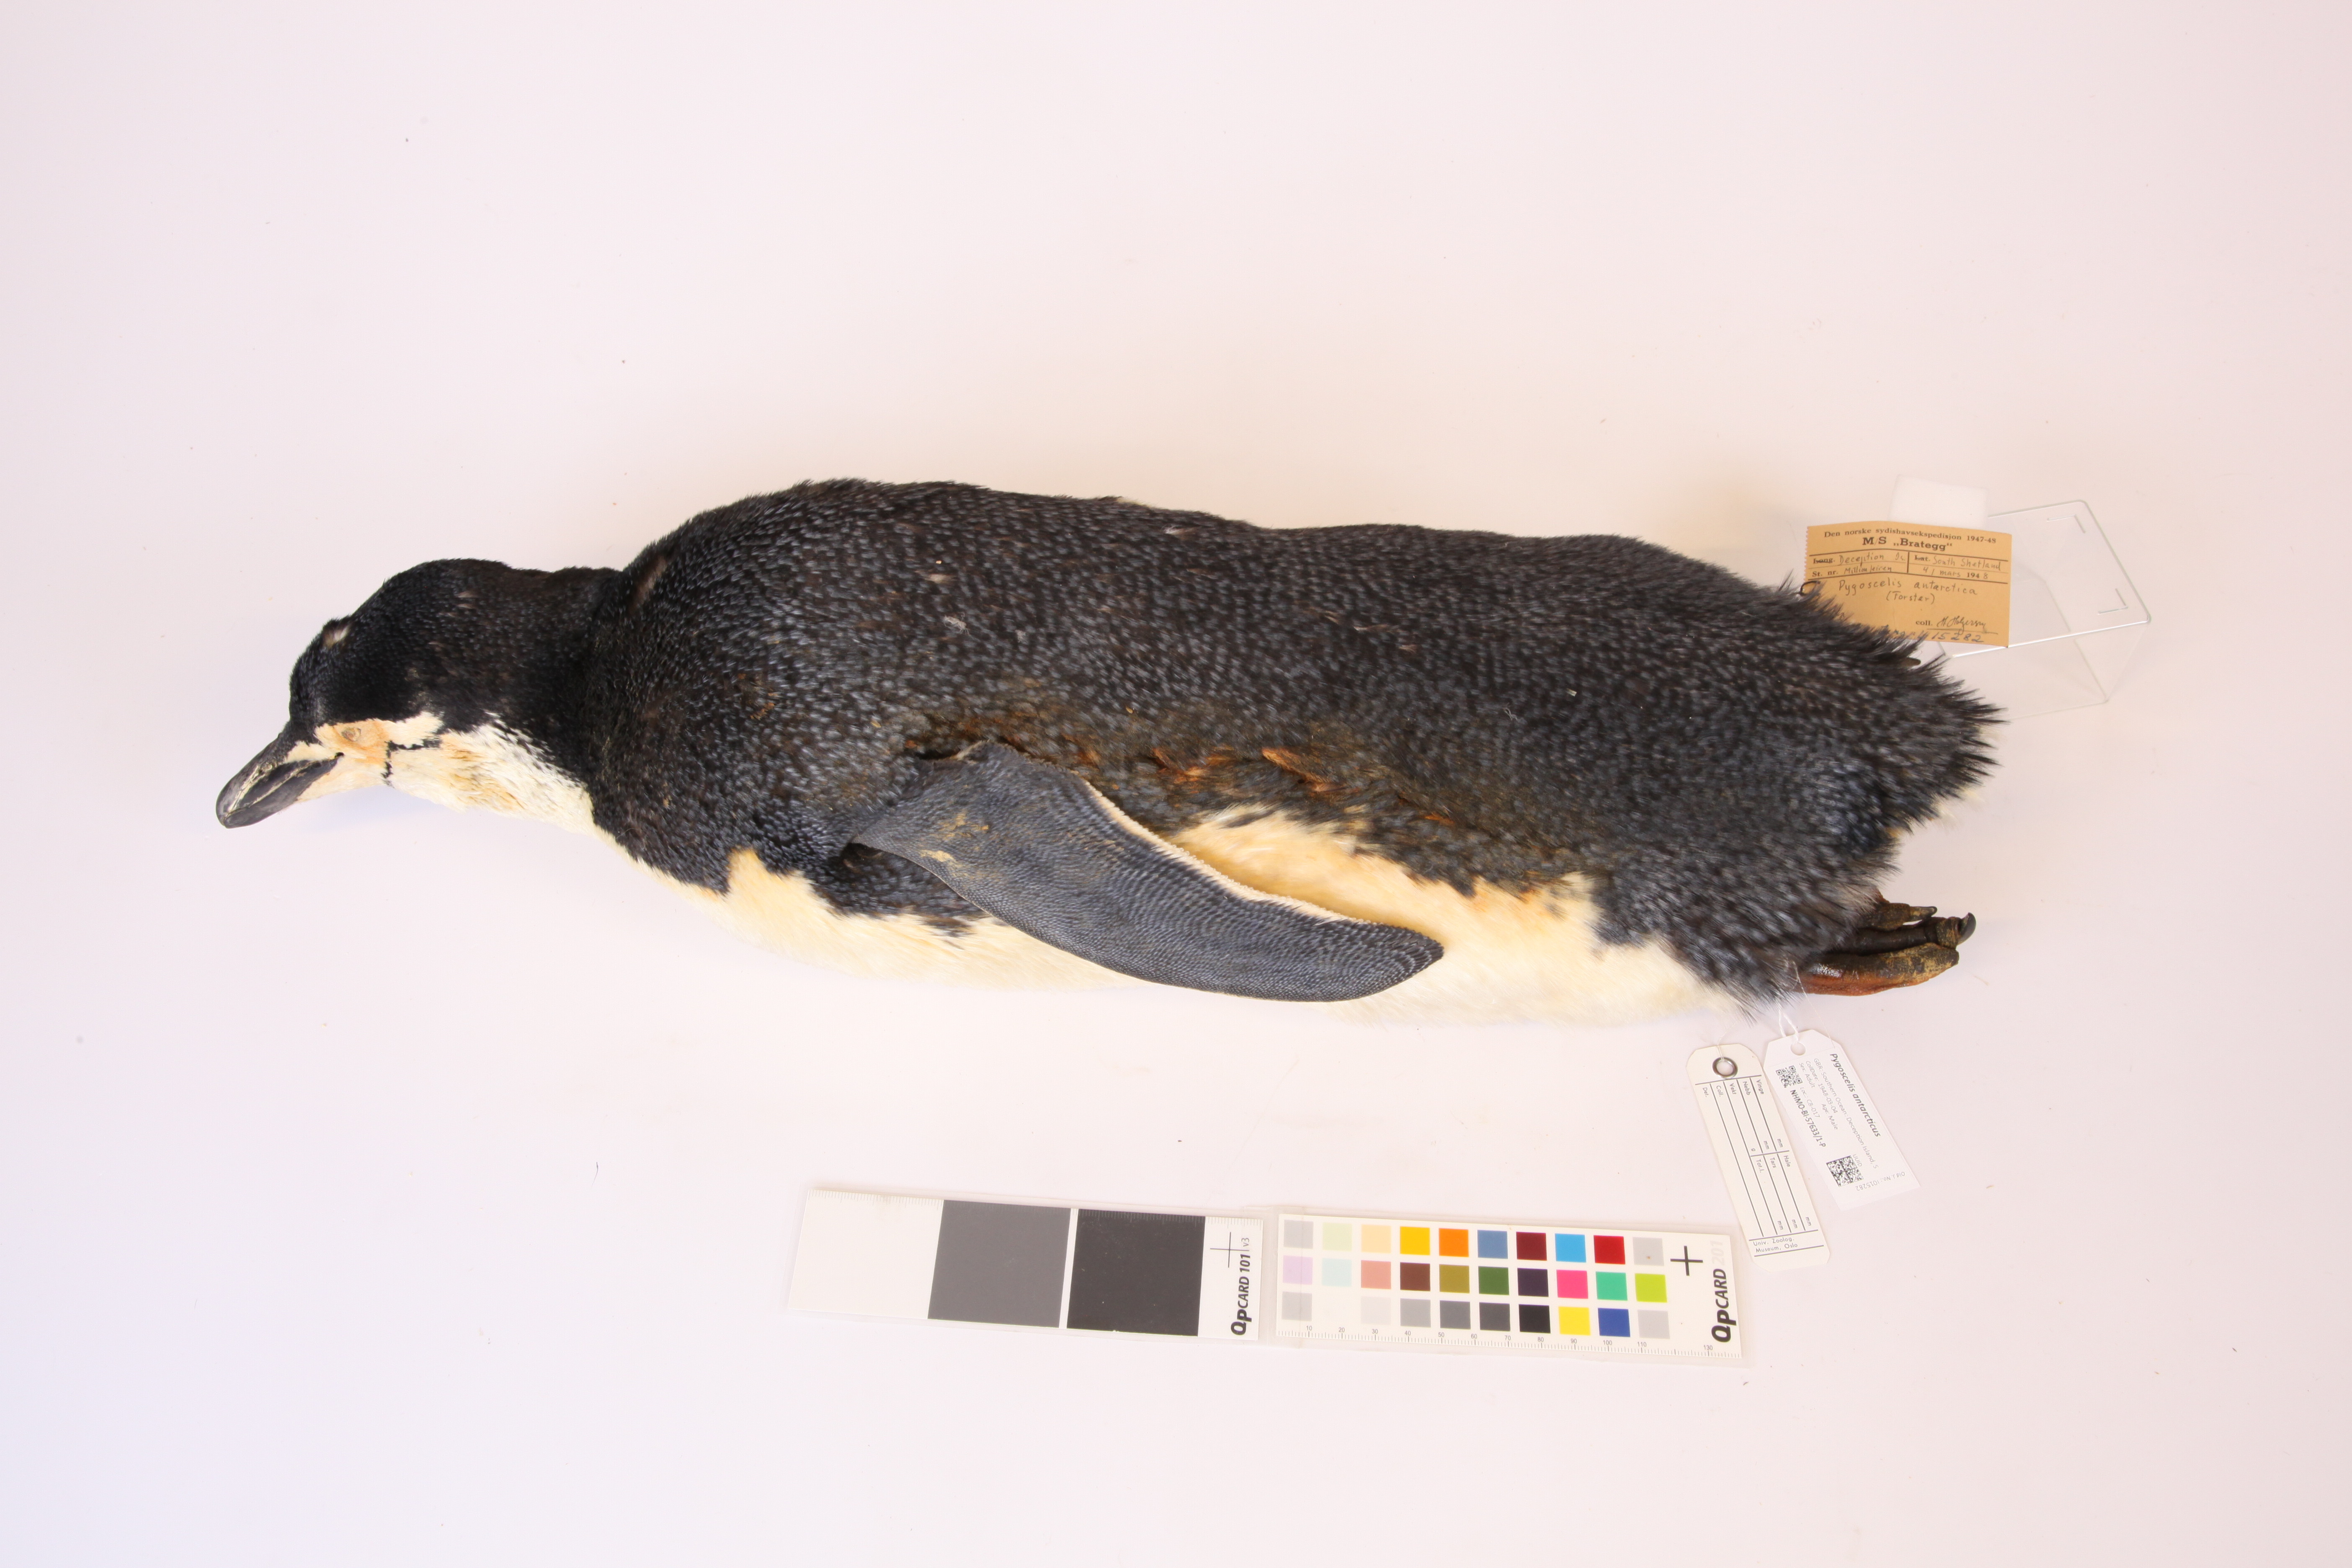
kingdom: Animalia
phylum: Chordata
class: Aves
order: Sphenisciformes
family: Spheniscidae
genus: Pygoscelis
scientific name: Pygoscelis antarcticus
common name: Chinstrap penguin
